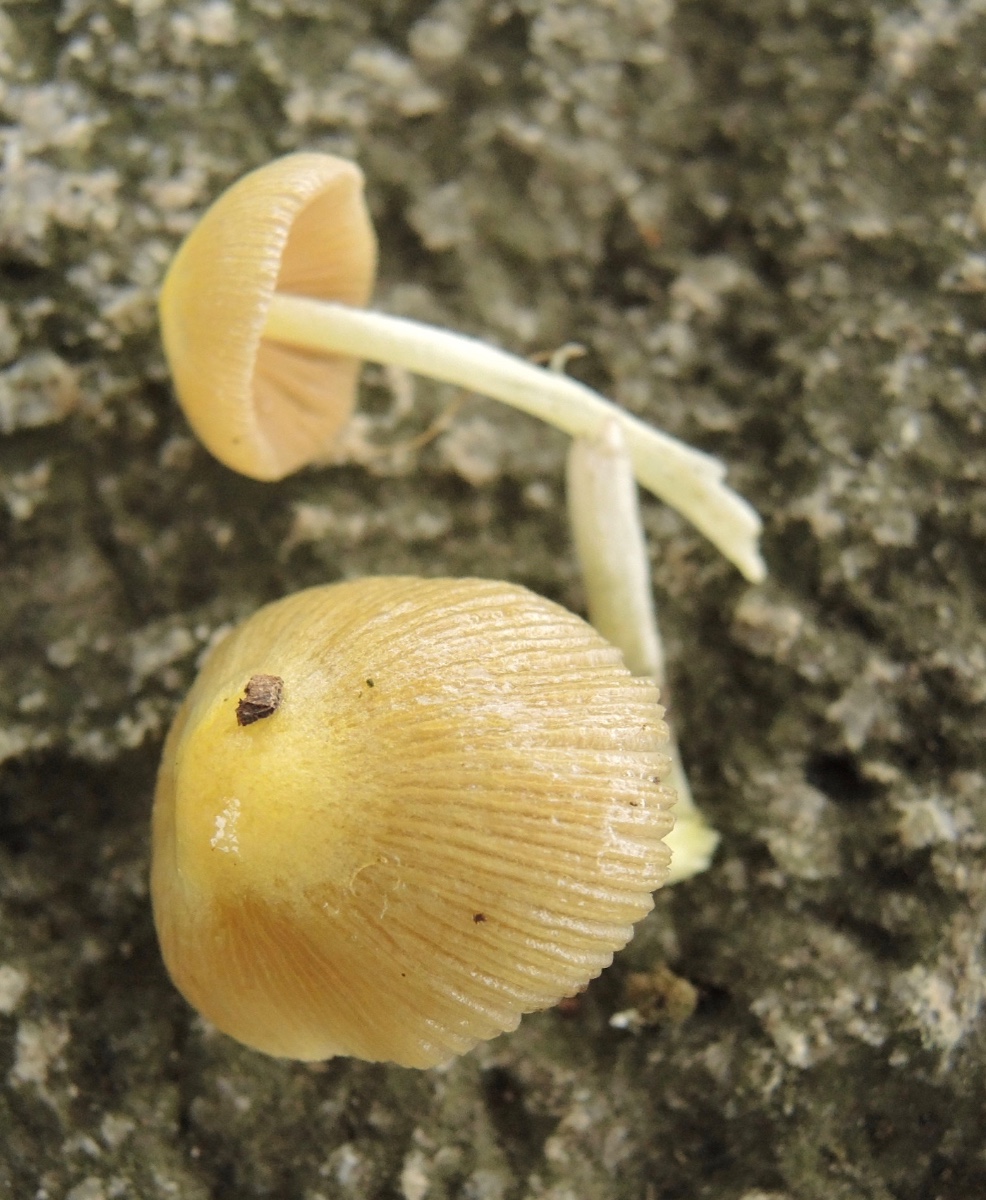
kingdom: Fungi
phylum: Basidiomycota
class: Agaricomycetes
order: Agaricales
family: Bolbitiaceae
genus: Bolbitius
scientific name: Bolbitius titubans
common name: almindelig gulhat
